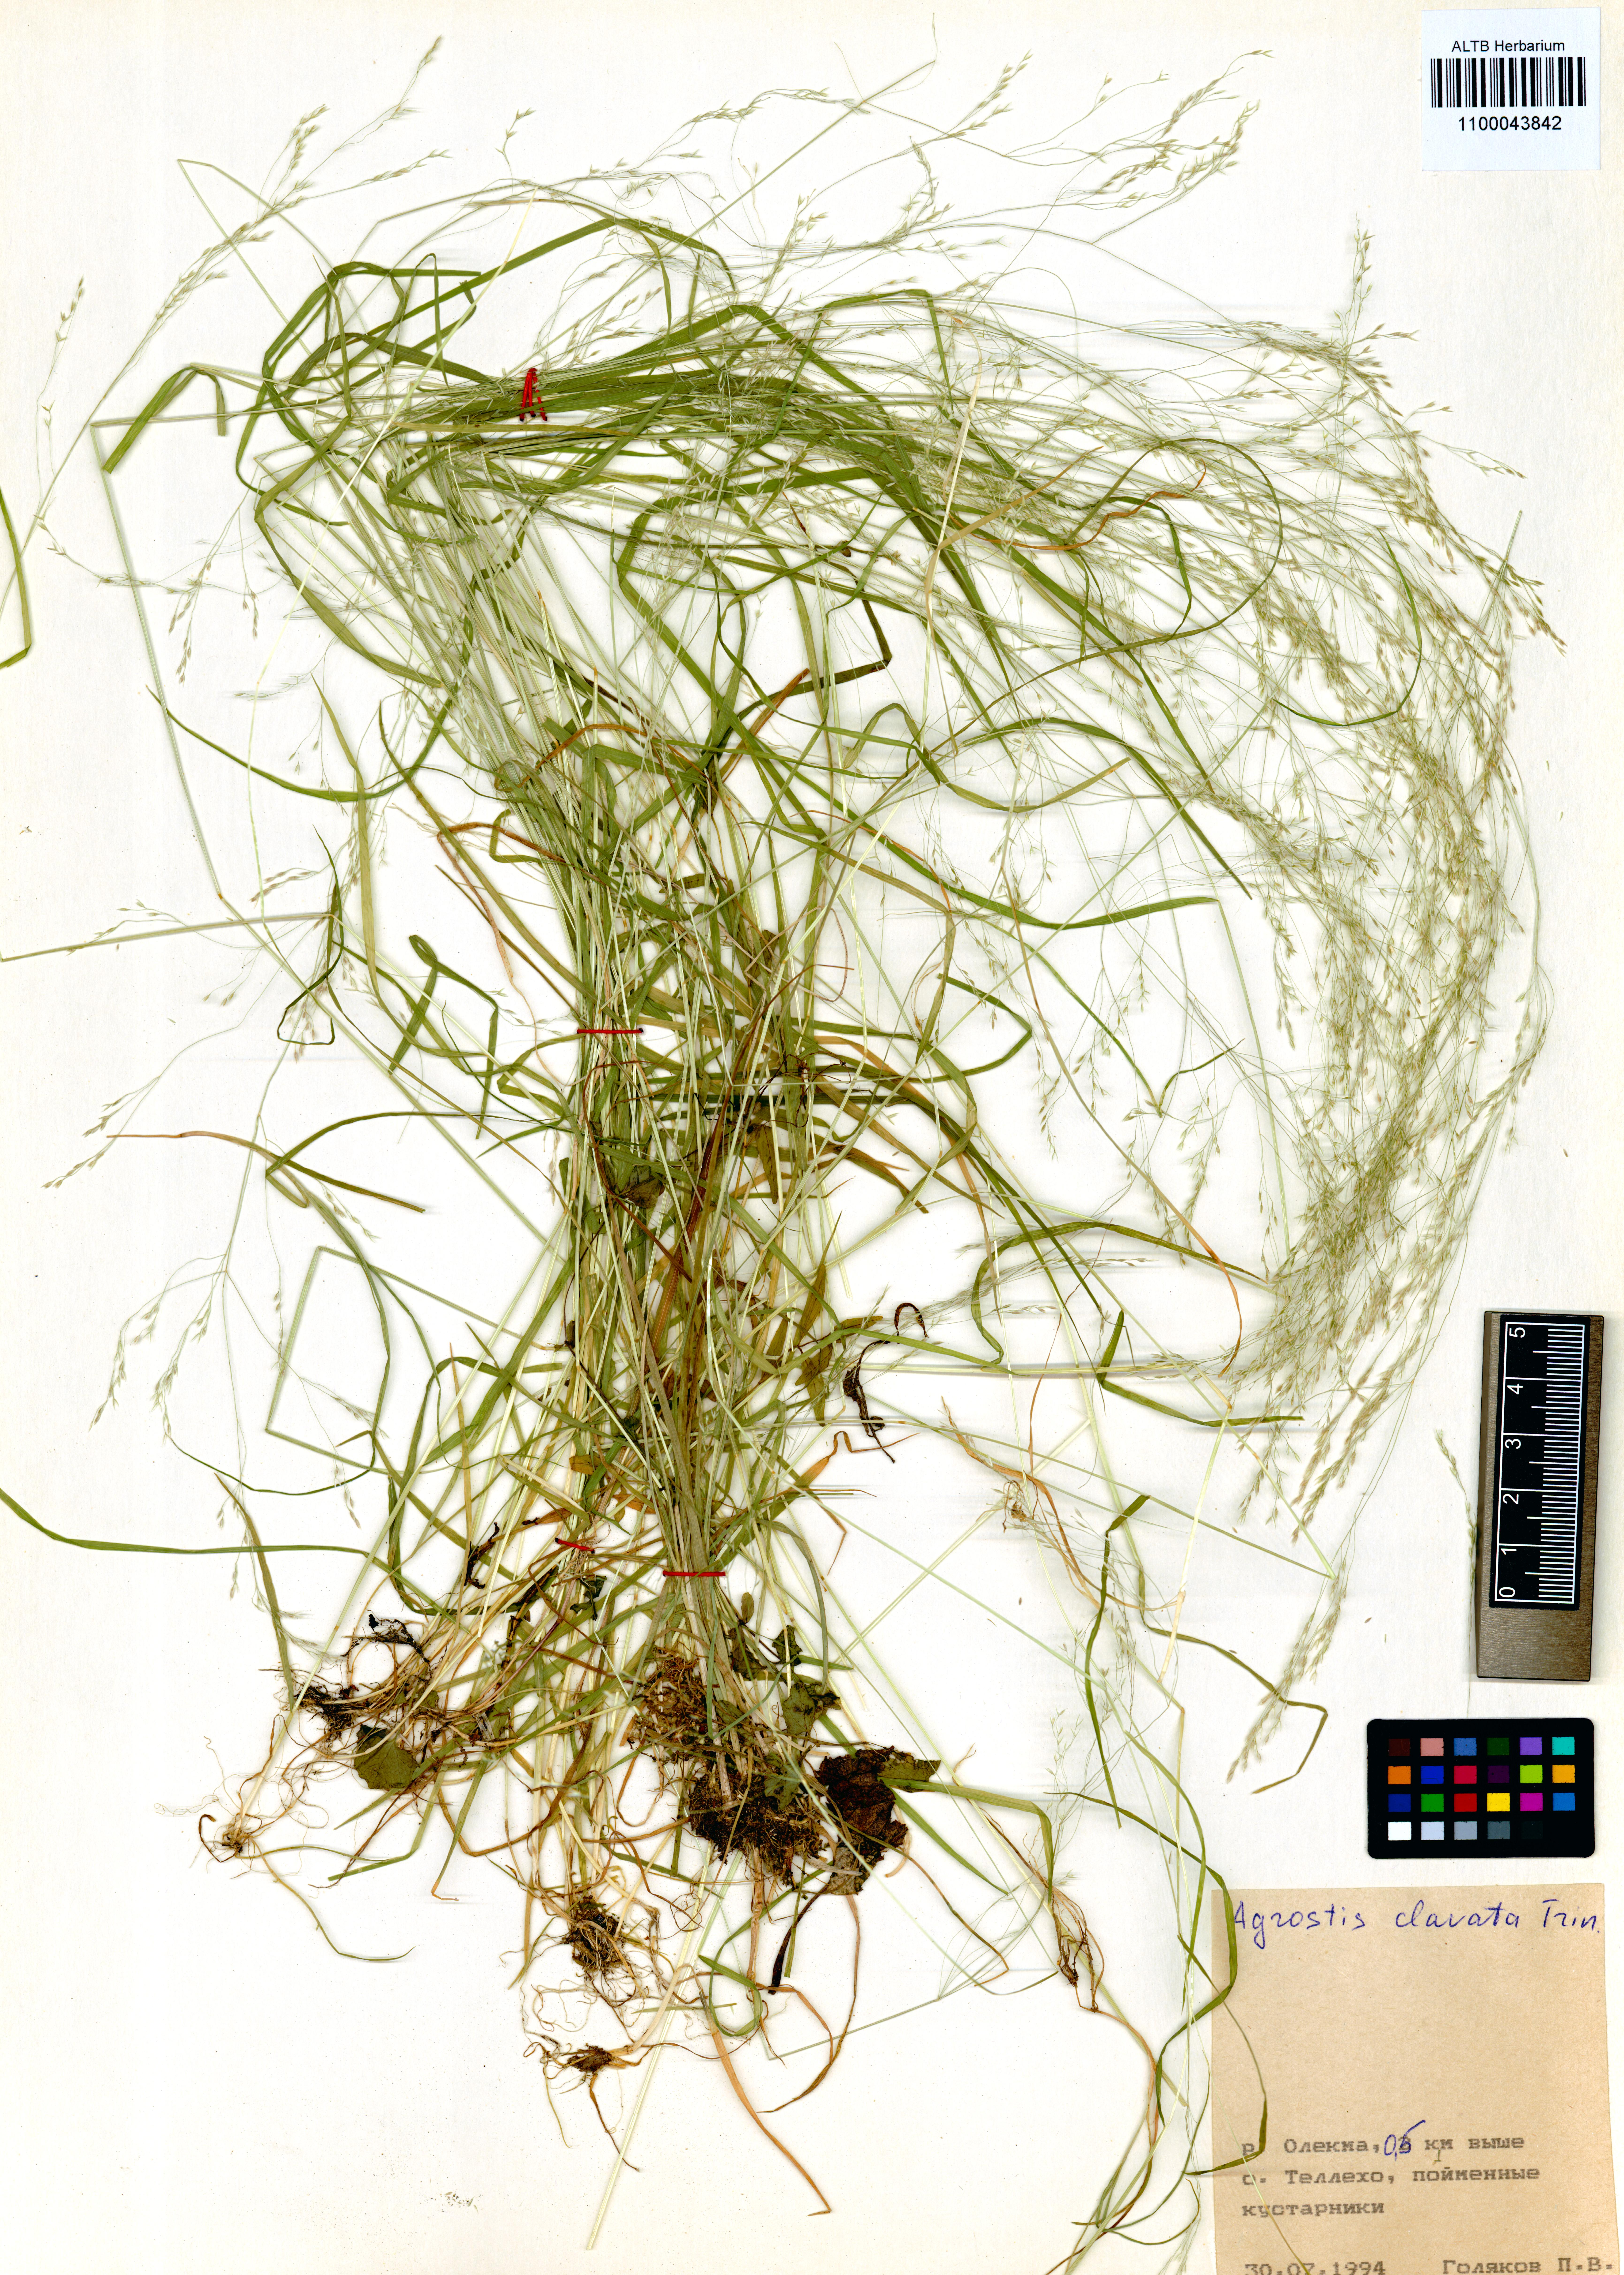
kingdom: Plantae
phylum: Tracheophyta
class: Liliopsida
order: Poales
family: Poaceae
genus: Agrostis
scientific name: Agrostis clavata
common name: Clavate bent
